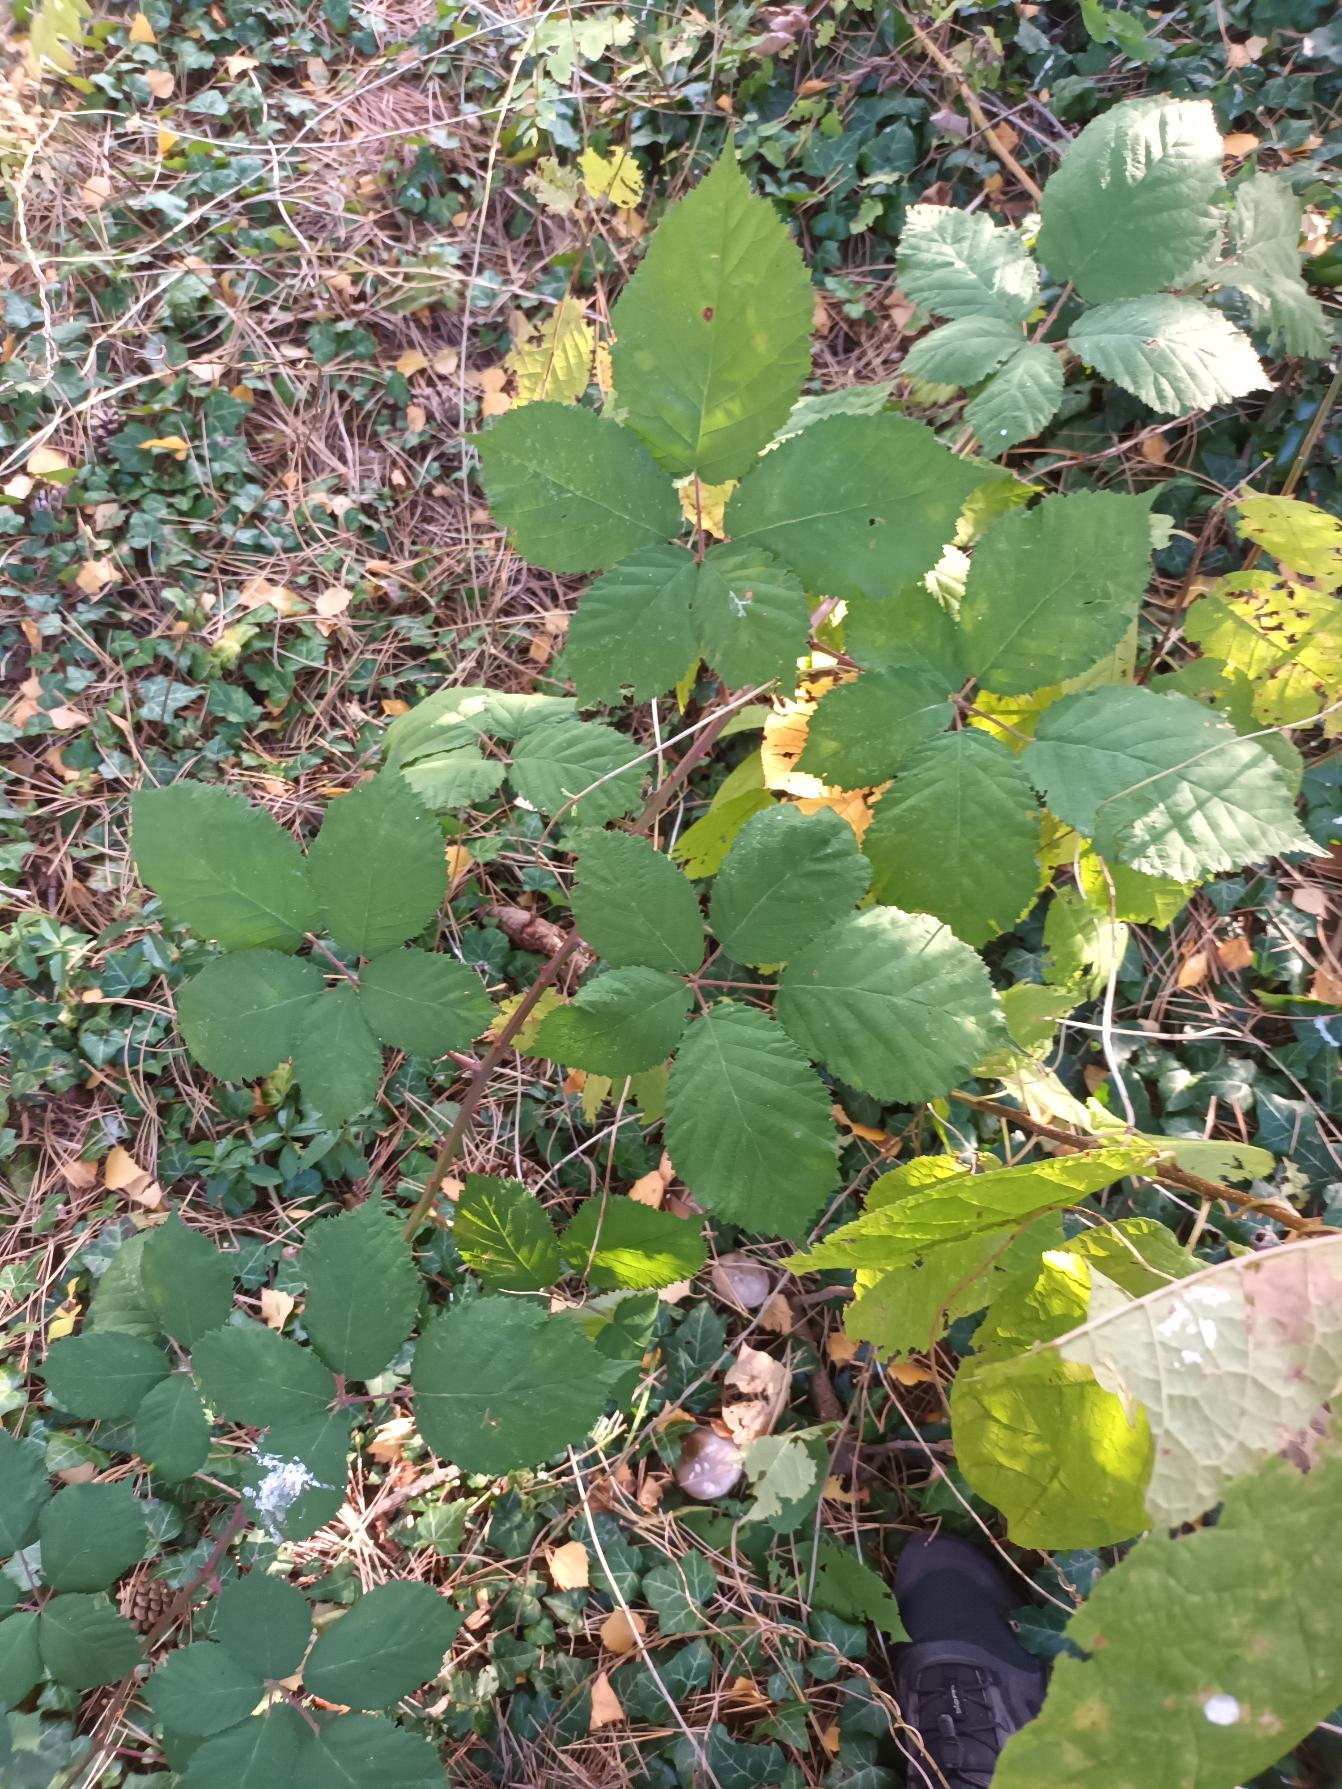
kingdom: Plantae
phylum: Tracheophyta
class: Magnoliopsida
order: Rosales
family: Rosaceae
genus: Rubus
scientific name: Rubus armeniacus
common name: Armensk brombær
